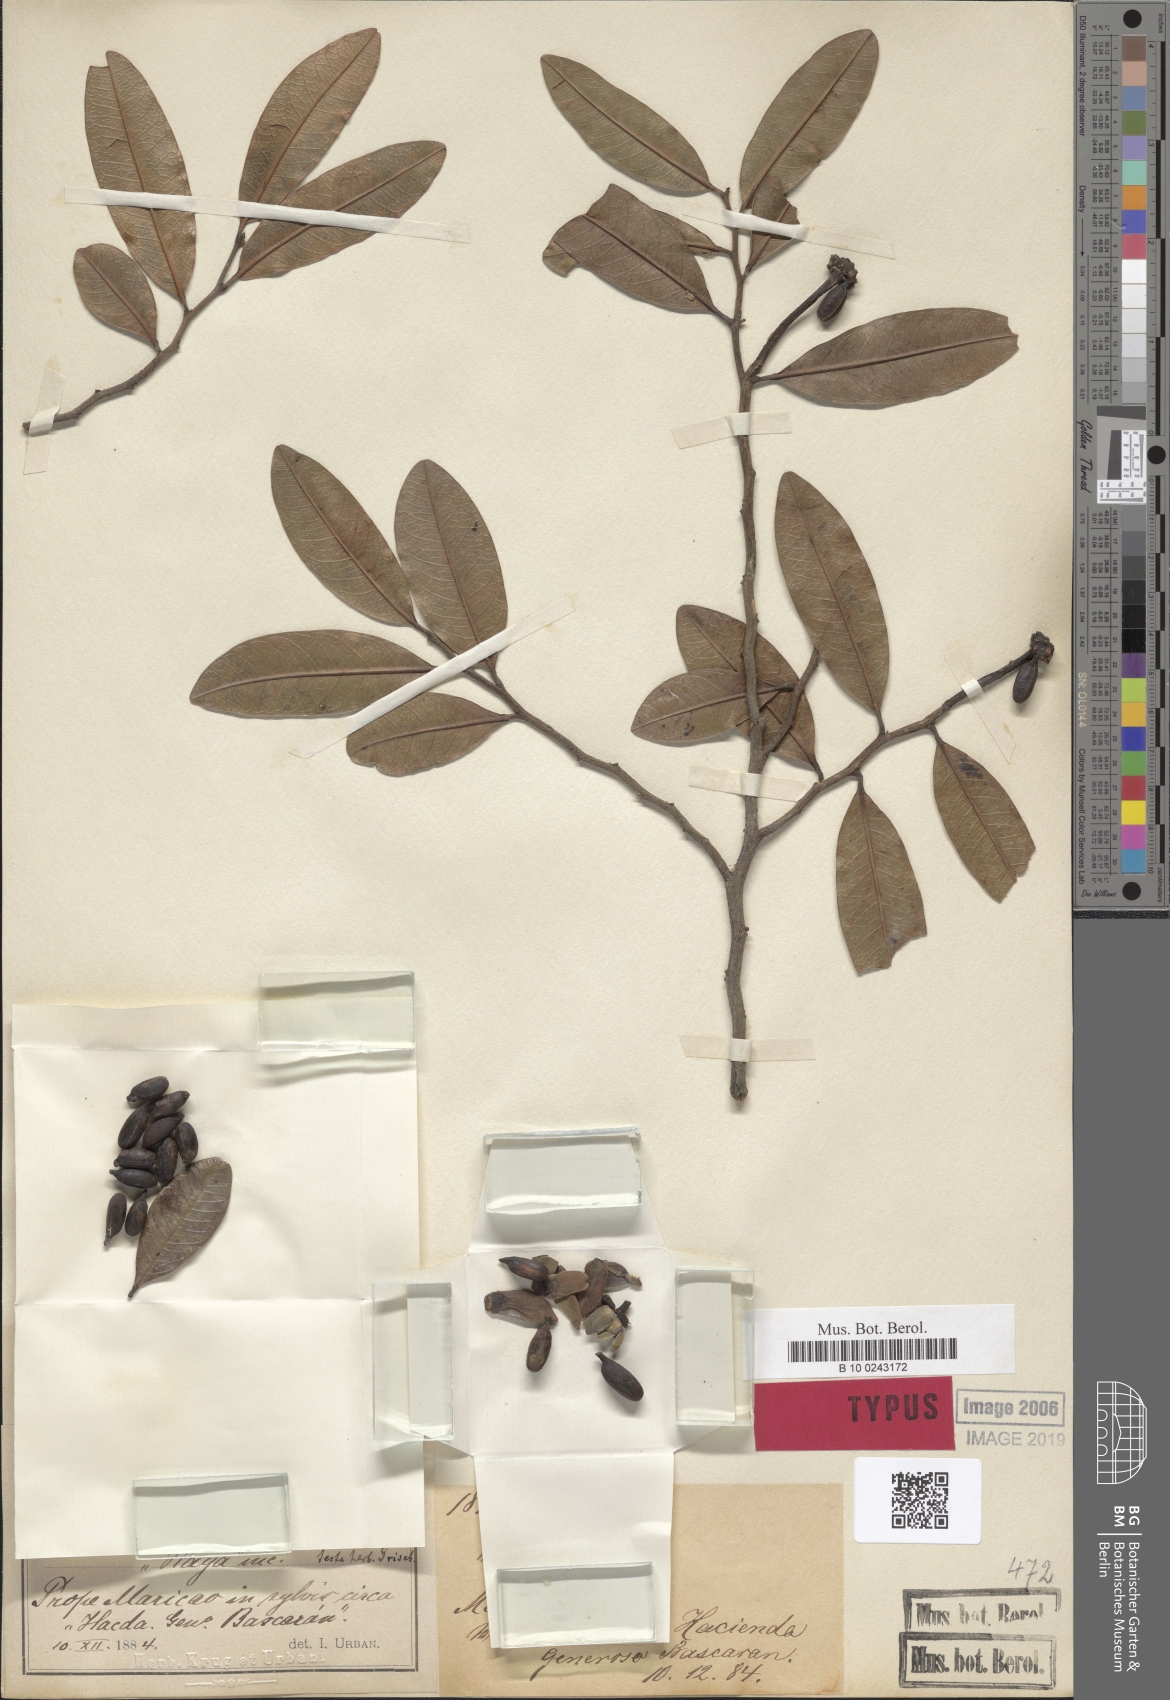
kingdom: Plantae
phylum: Tracheophyta
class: Magnoliopsida
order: Magnoliales
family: Annonaceae
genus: Guatteria
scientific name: Guatteria blainii
